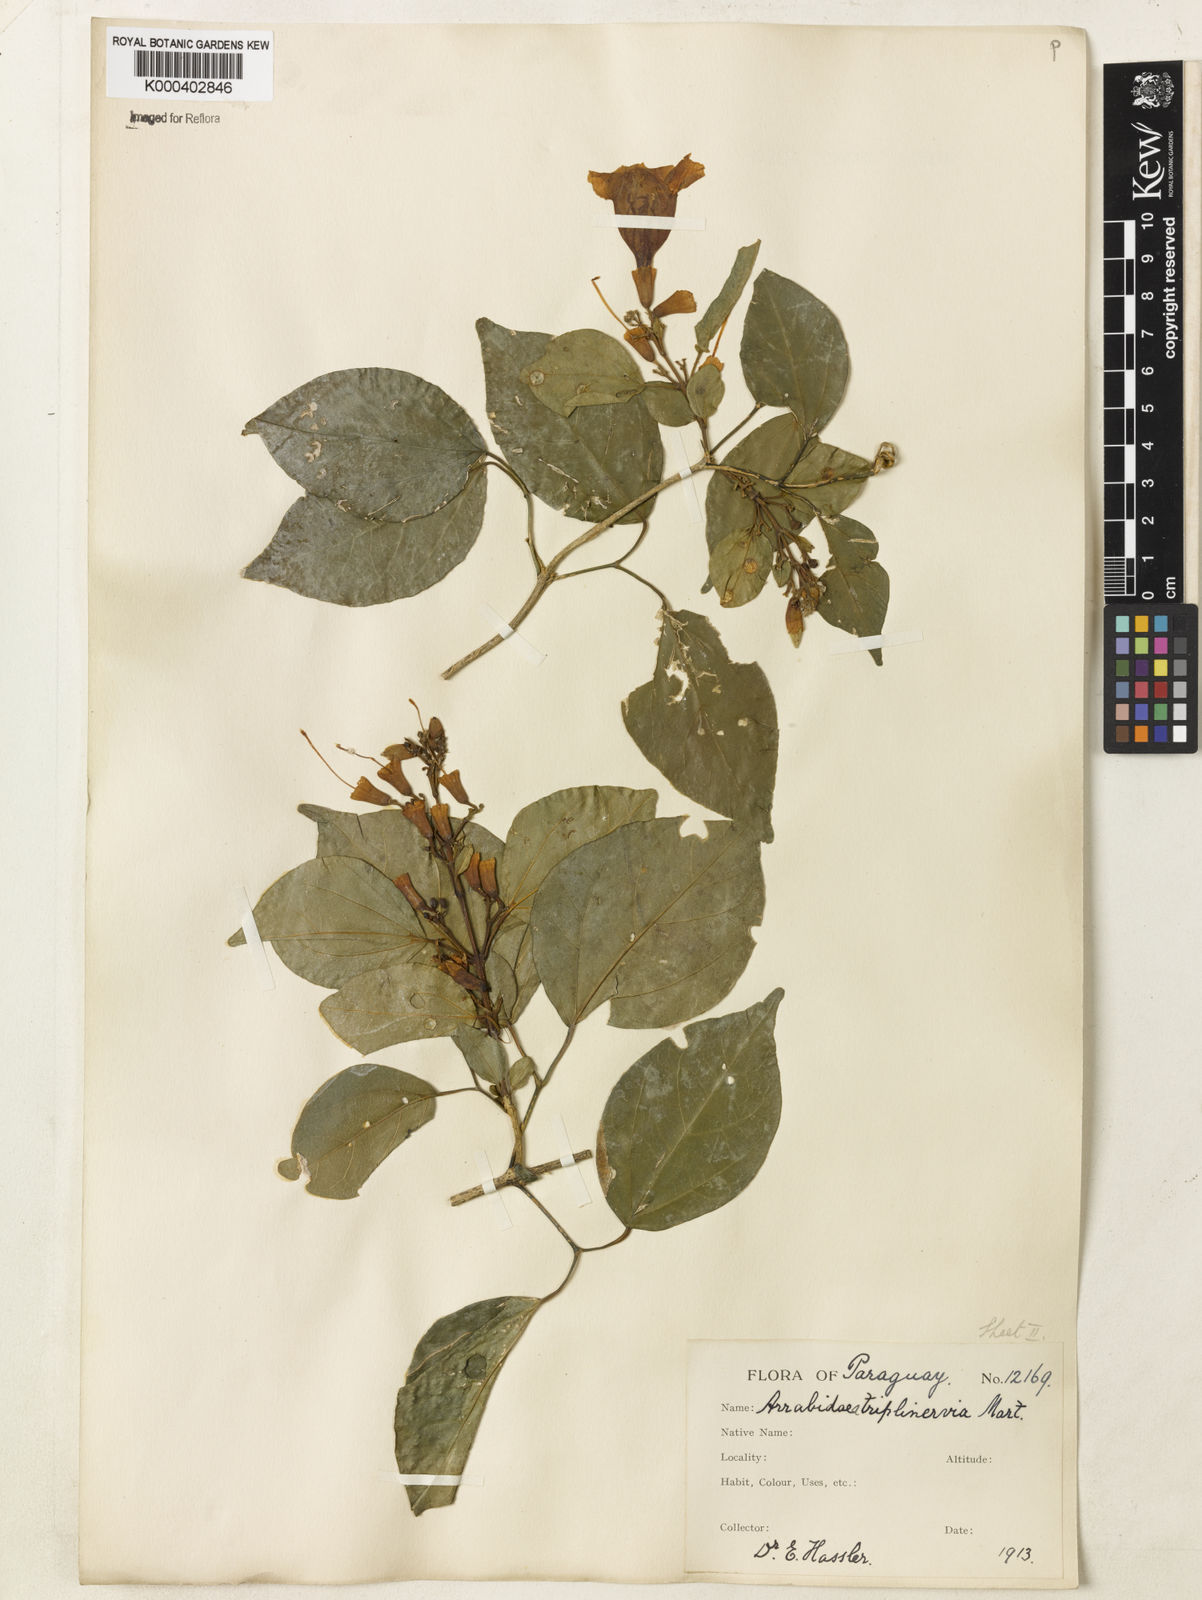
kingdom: Plantae
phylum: Tracheophyta
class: Magnoliopsida
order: Lamiales
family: Bignoniaceae
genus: Fridericia
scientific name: Fridericia triplinervia
